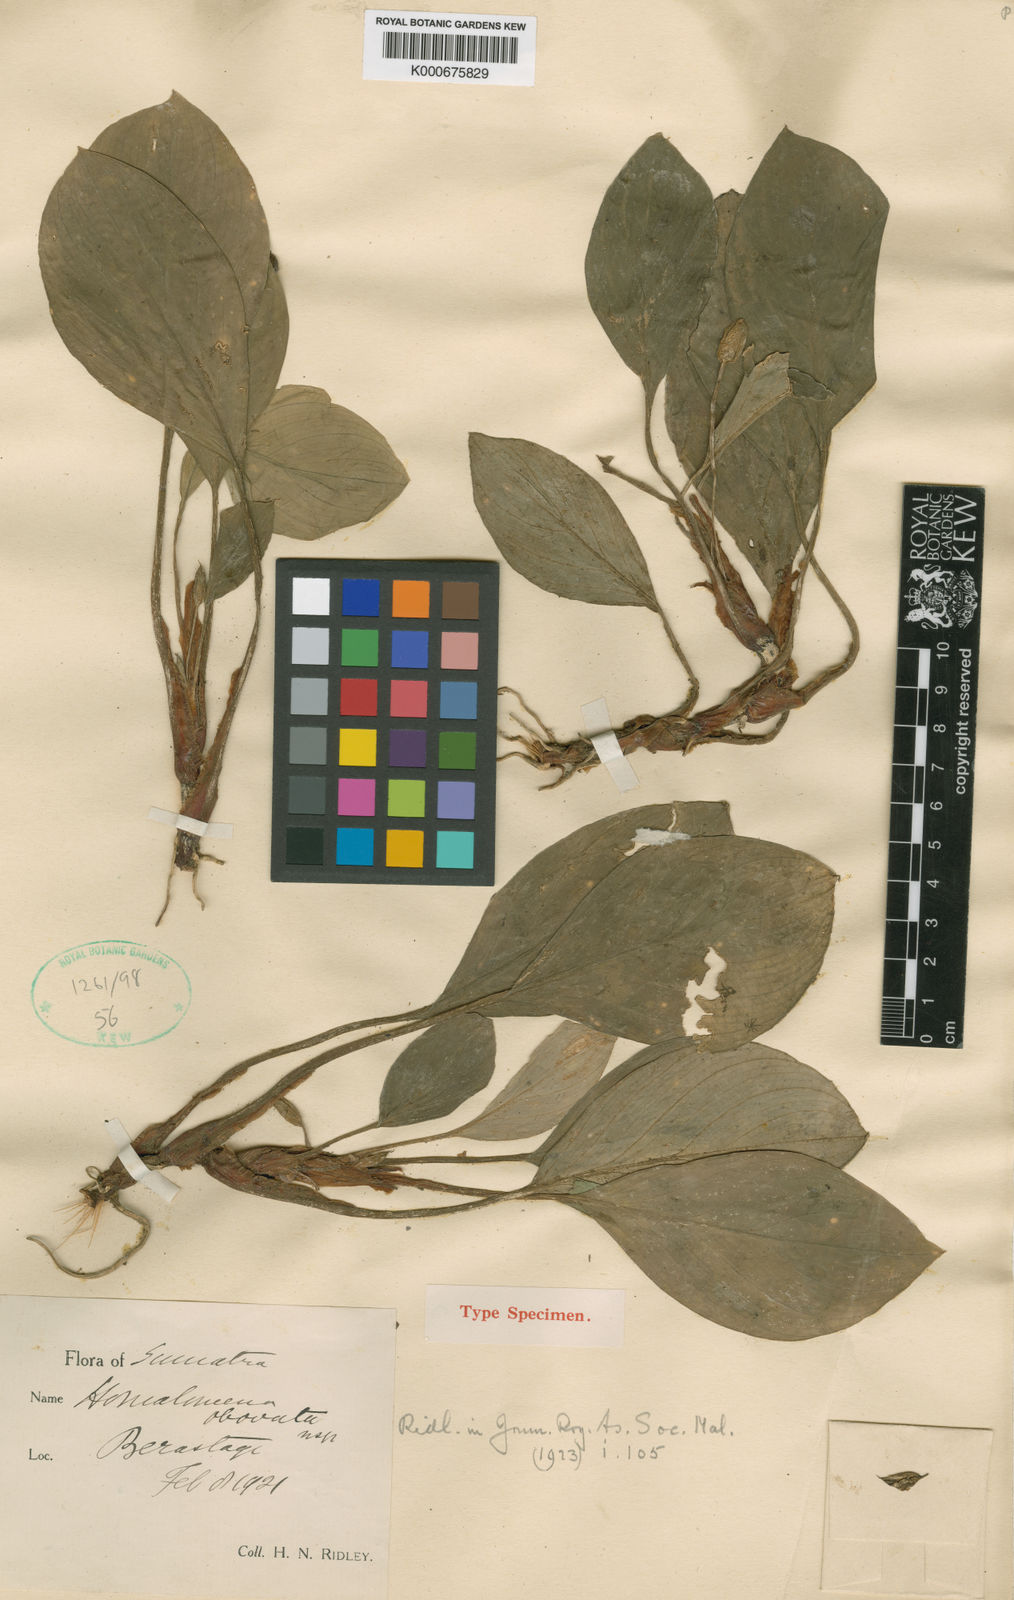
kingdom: Plantae
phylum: Tracheophyta
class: Liliopsida
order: Alismatales
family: Araceae
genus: Homalomena
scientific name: Homalomena obovata
